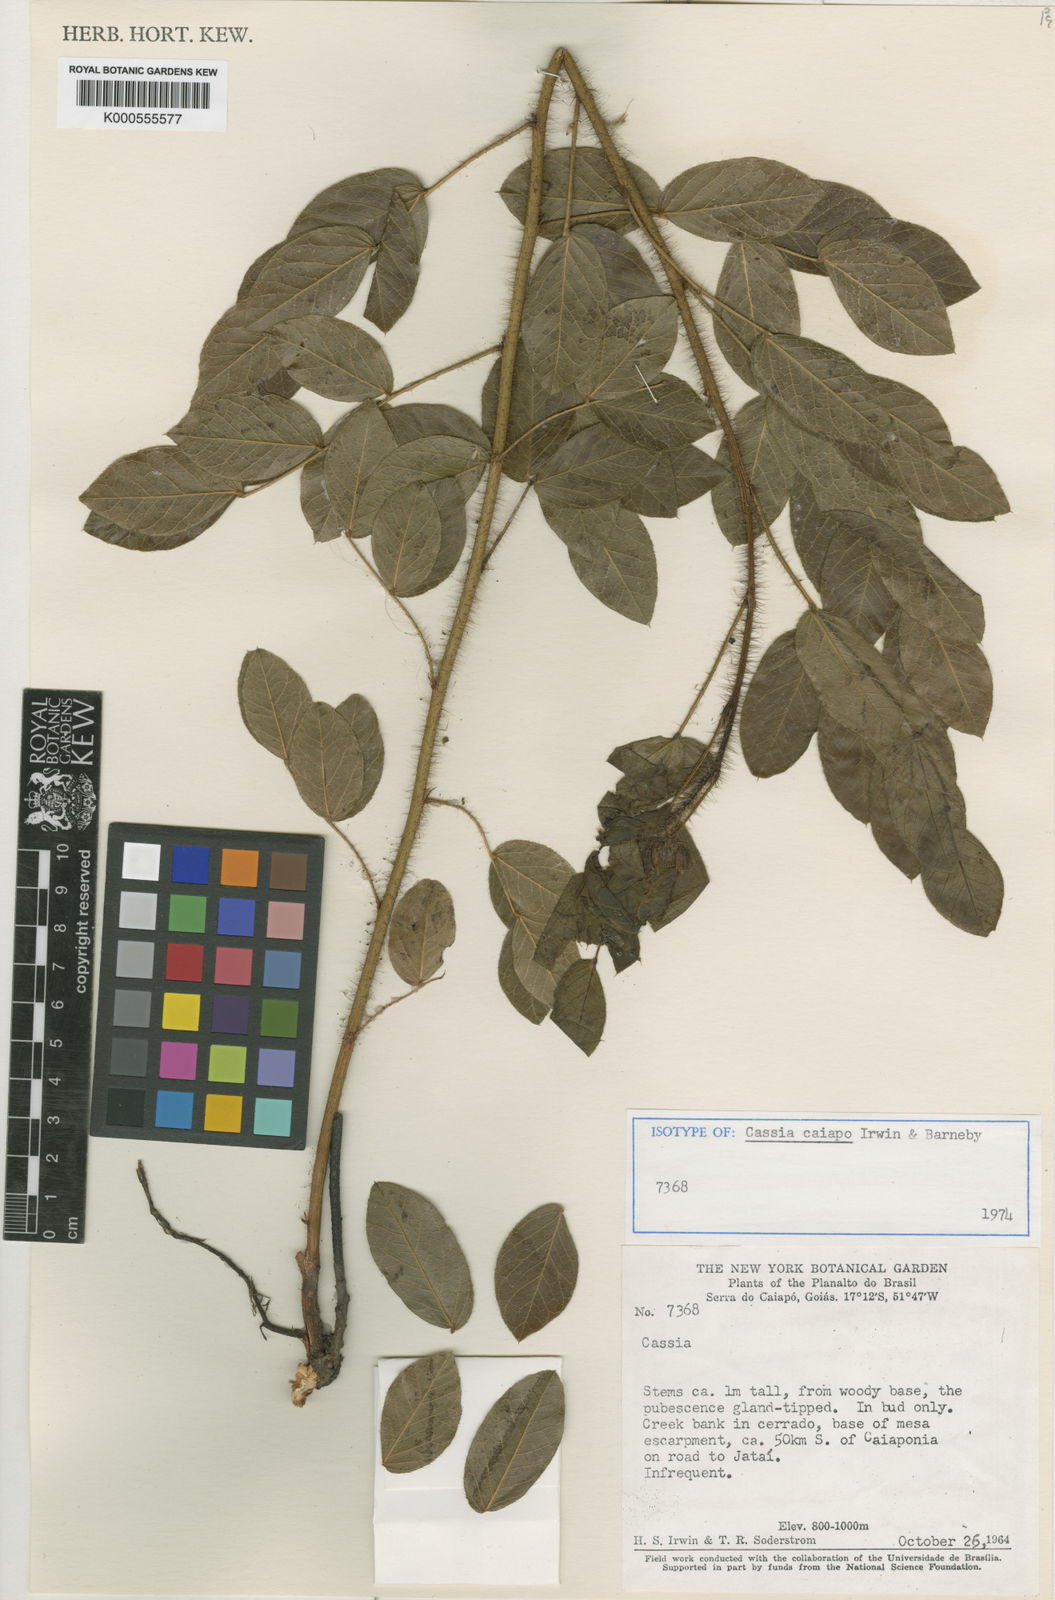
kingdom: Plantae
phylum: Tracheophyta
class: Magnoliopsida
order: Fabales
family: Fabaceae
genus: Chamaecrista
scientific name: Chamaecrista caiapo
